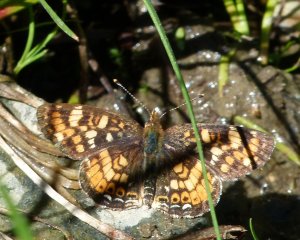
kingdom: Animalia
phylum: Arthropoda
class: Insecta
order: Lepidoptera
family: Nymphalidae
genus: Phyciodes
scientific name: Phyciodes tharos
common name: Field Crescent
